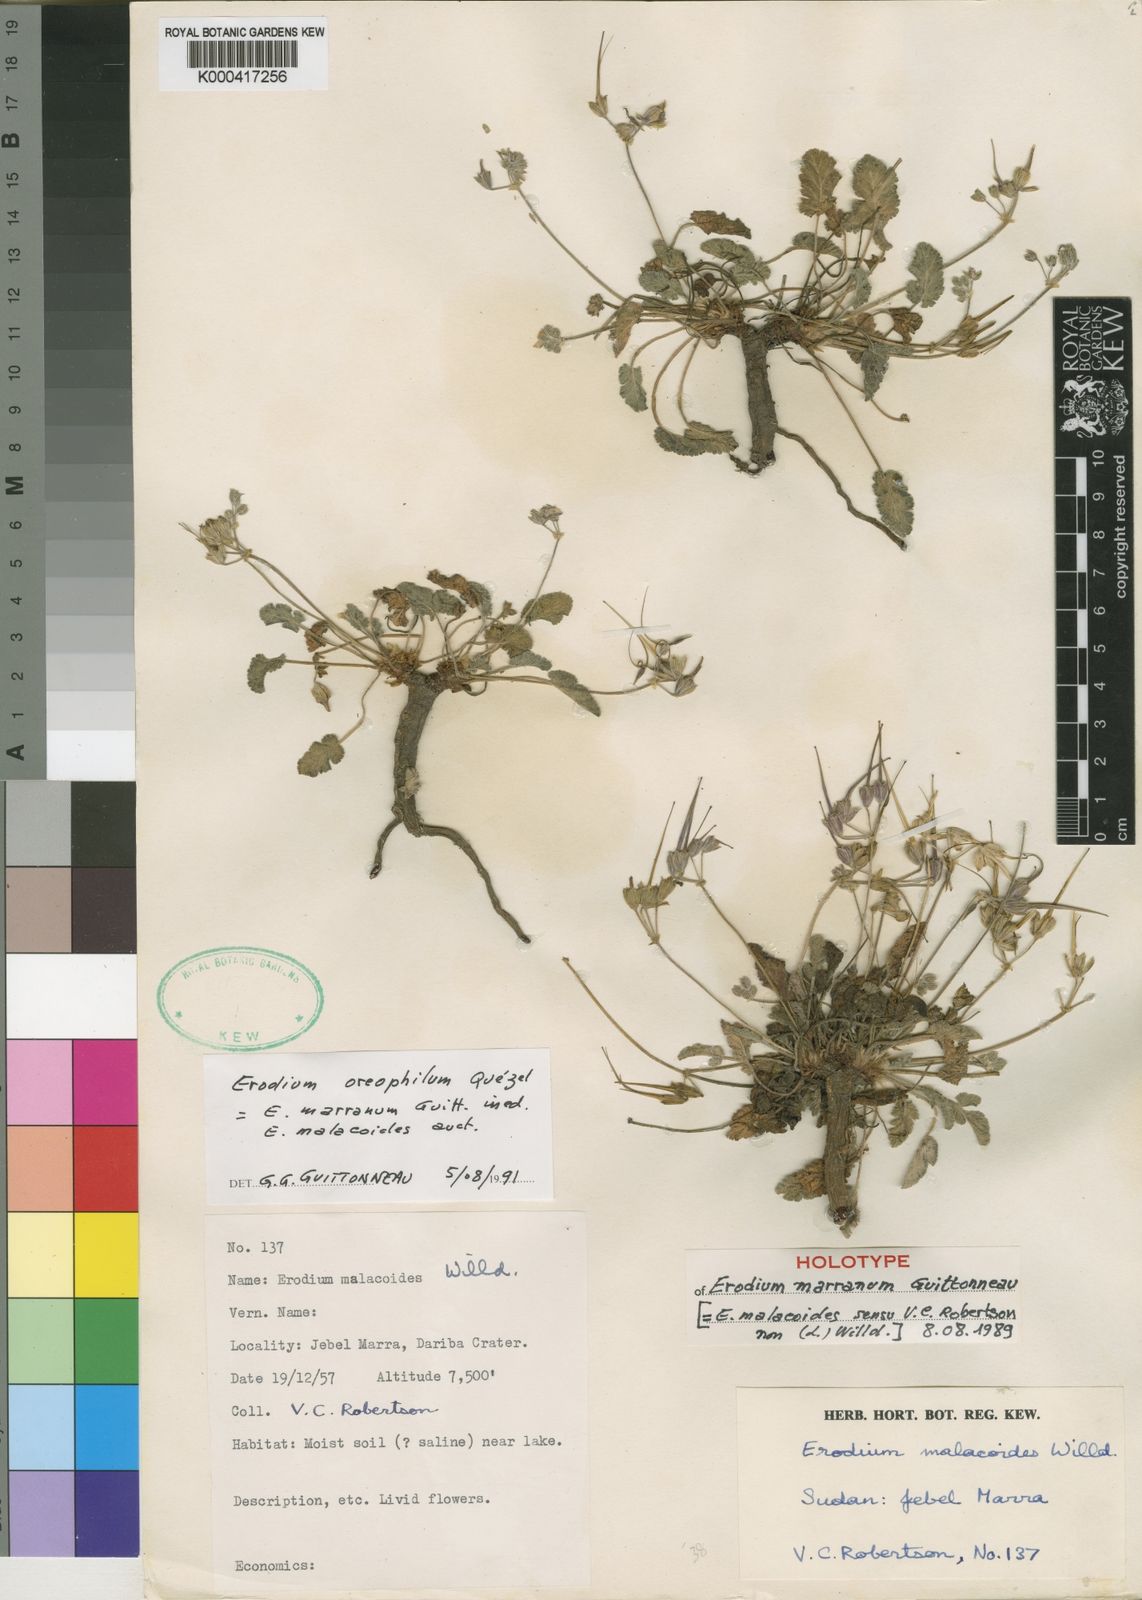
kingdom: Plantae
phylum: Tracheophyta
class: Magnoliopsida
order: Geraniales
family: Geraniaceae
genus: Erodium
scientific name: Erodium
